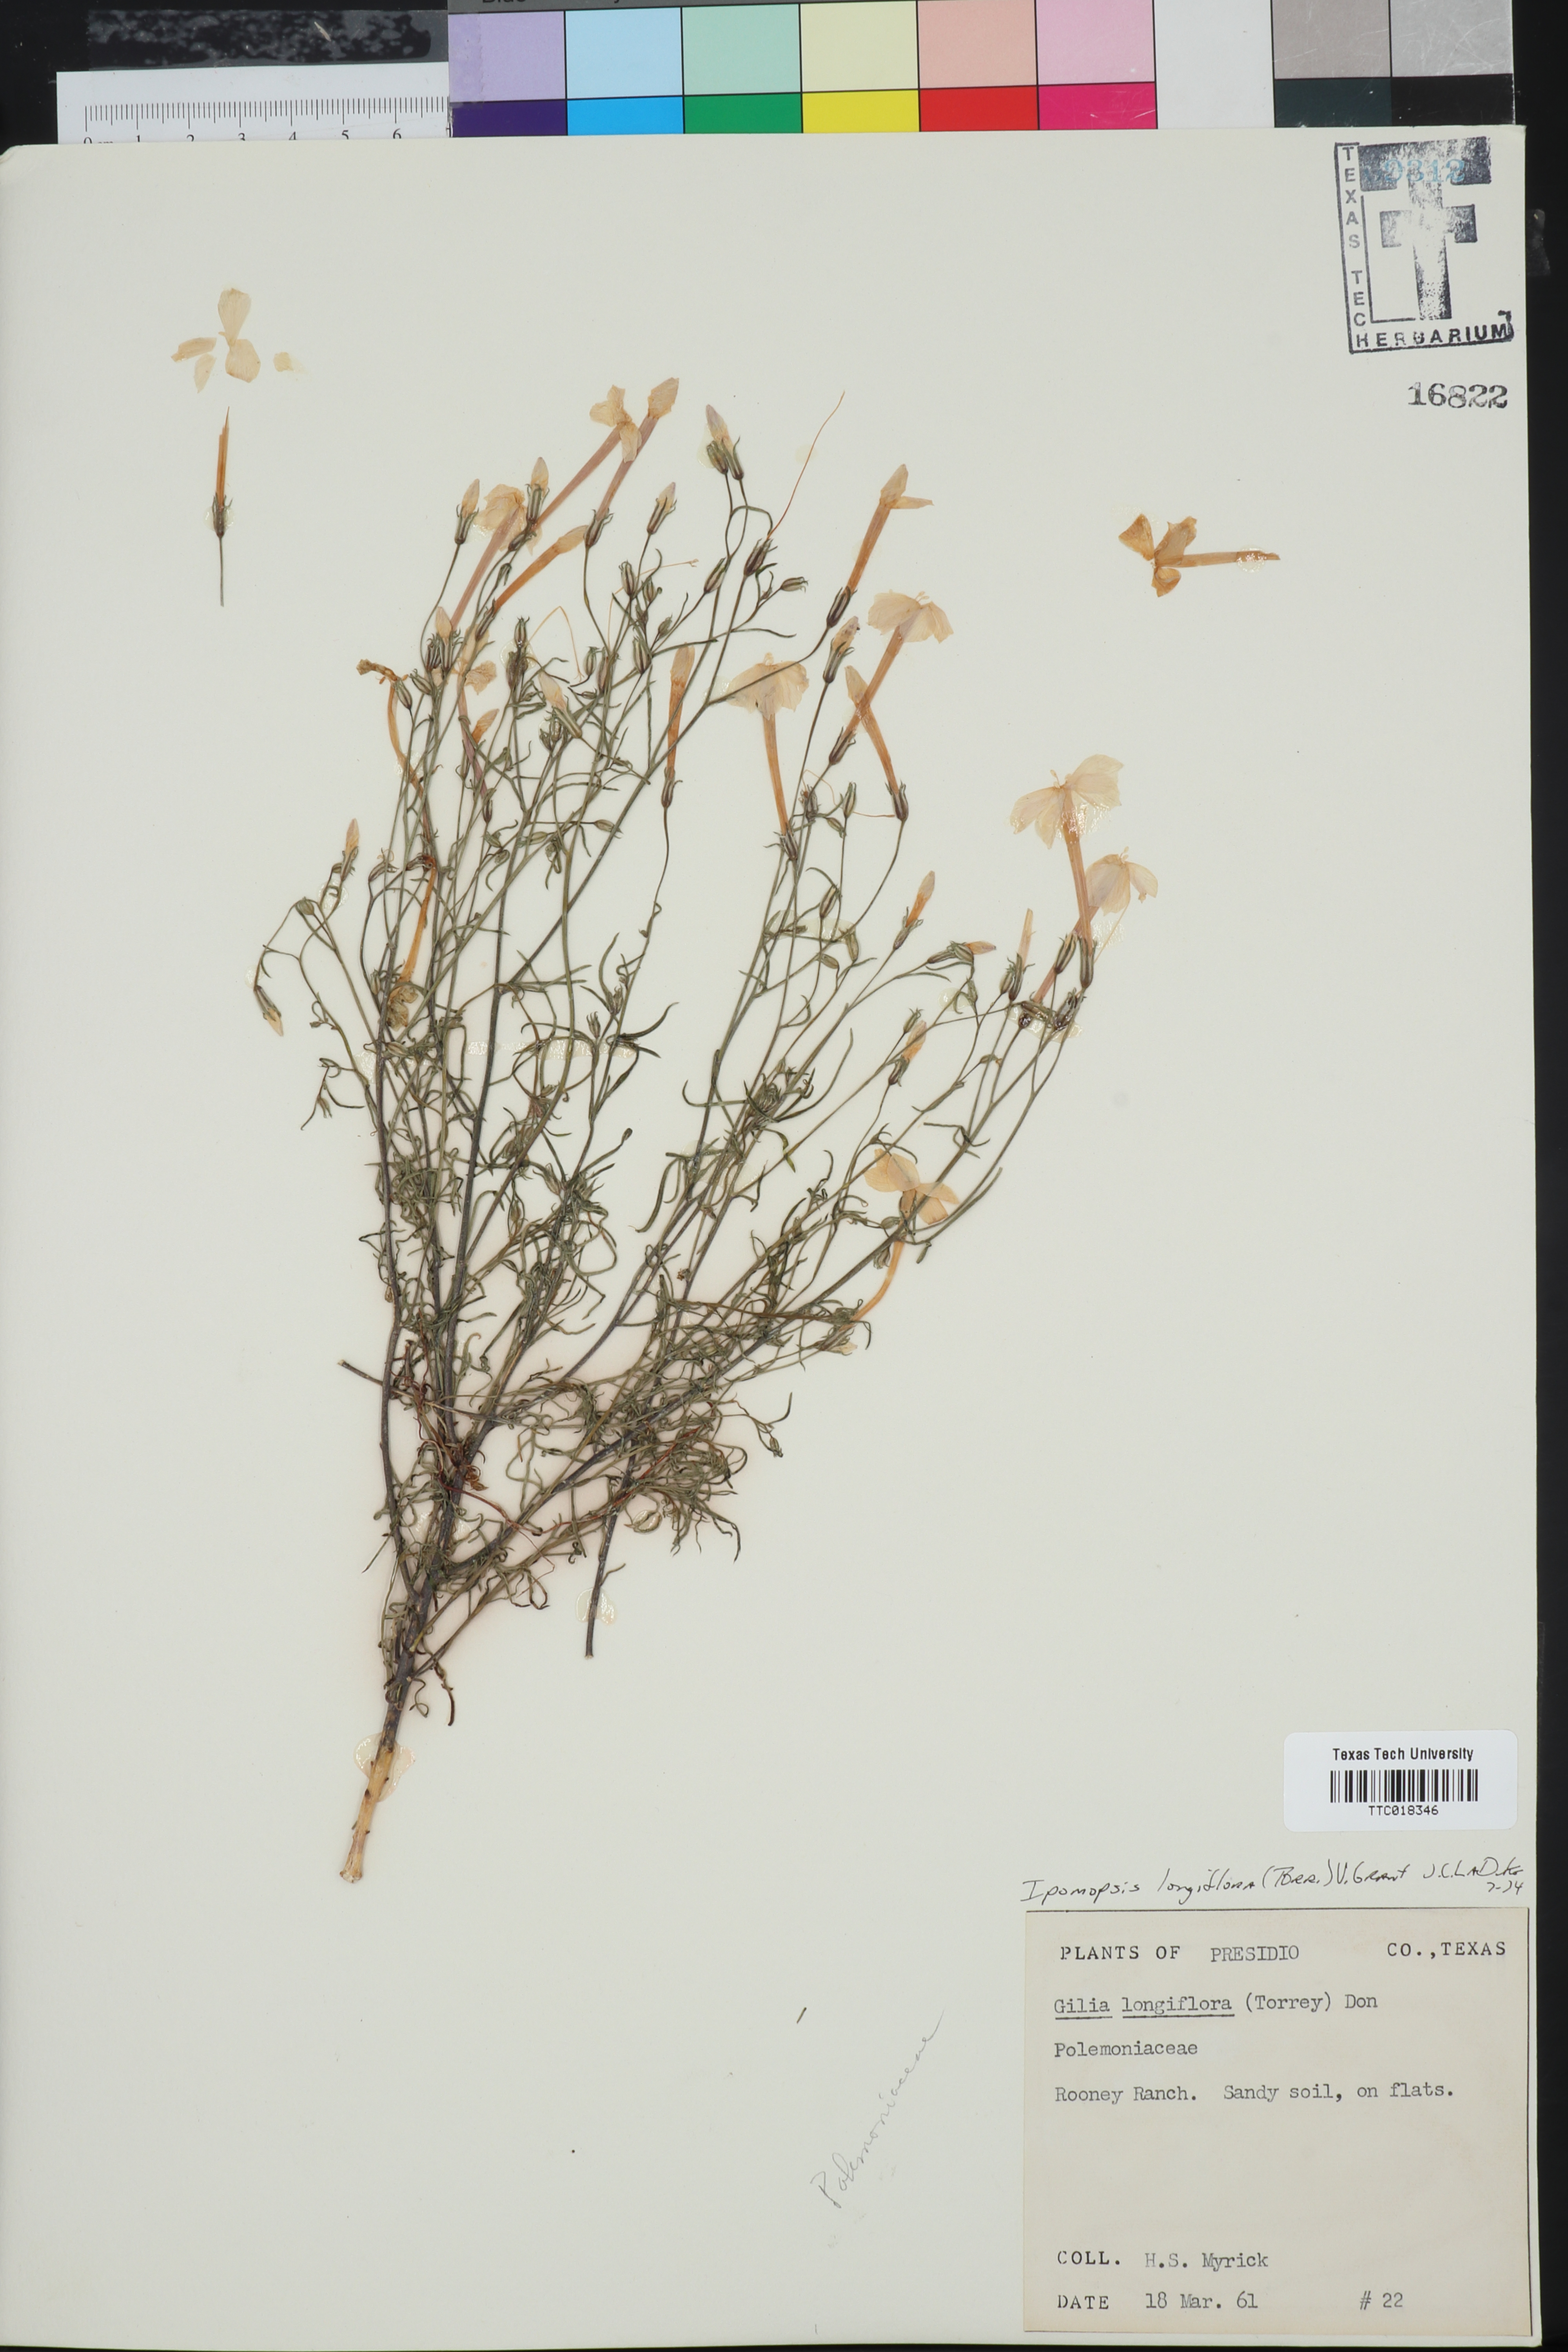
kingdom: Plantae
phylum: Tracheophyta
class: Magnoliopsida
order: Ericales
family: Polemoniaceae
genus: Ipomopsis
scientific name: Ipomopsis longiflora
